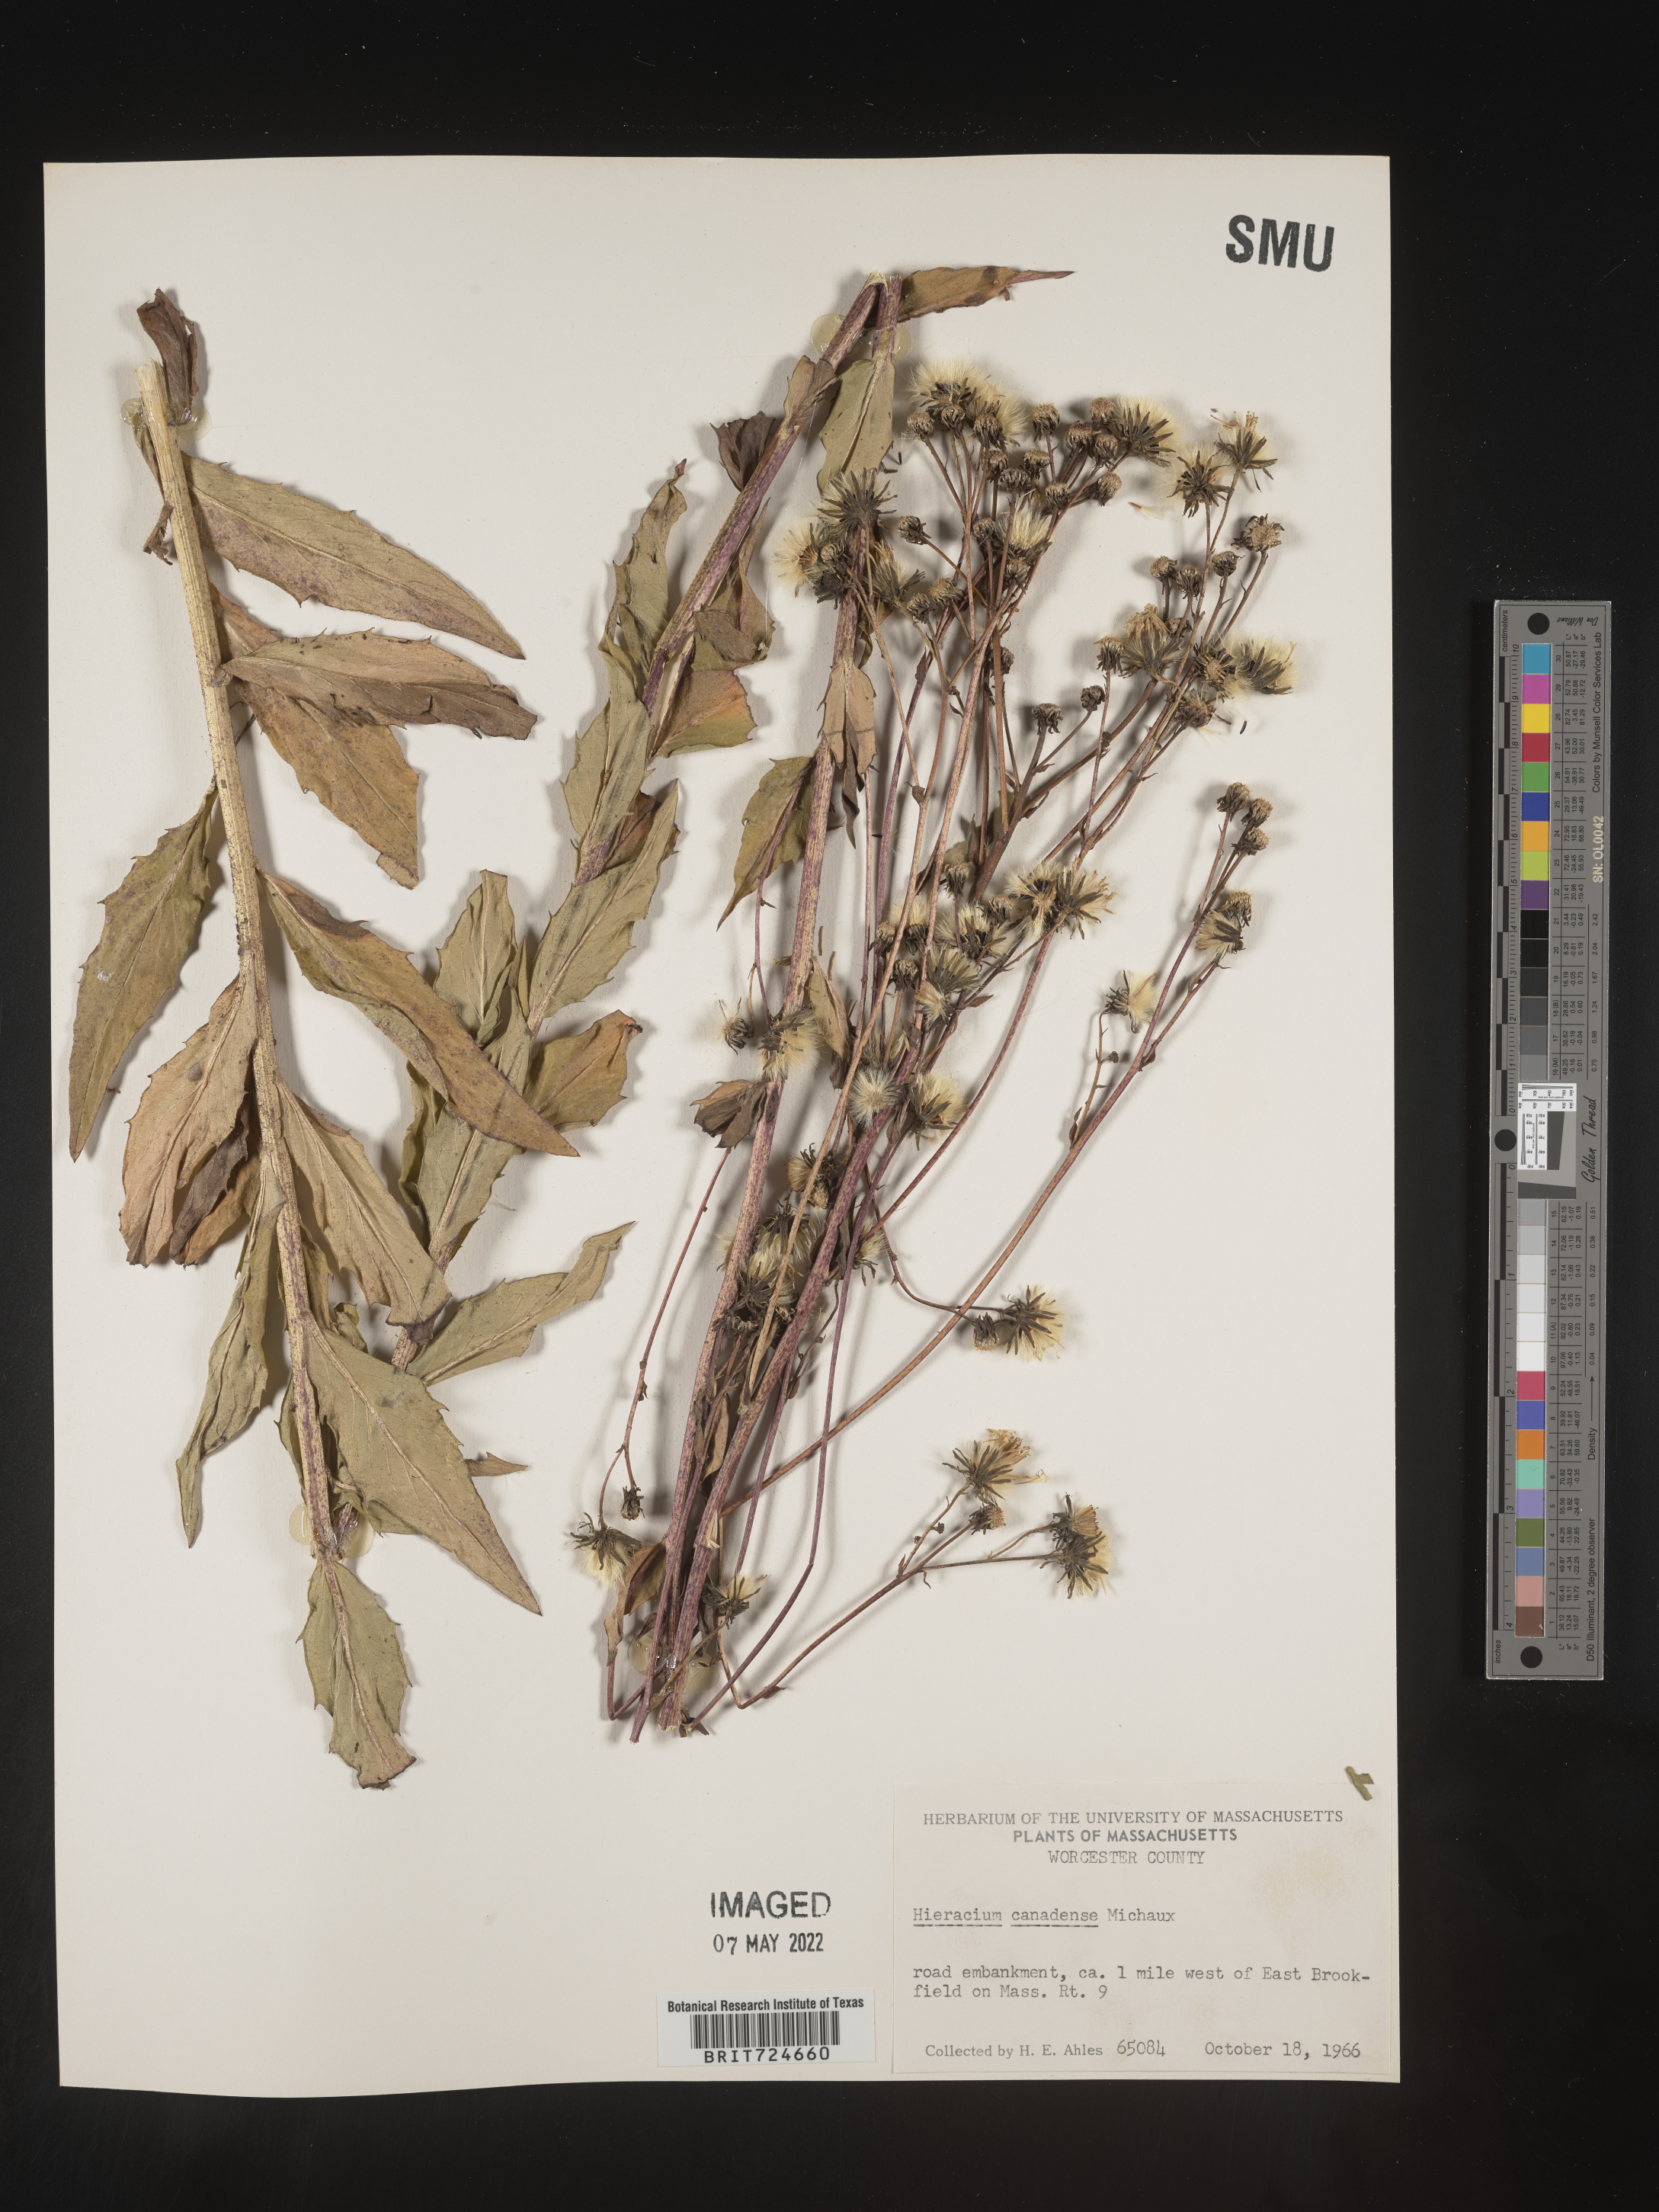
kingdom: Plantae
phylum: Tracheophyta
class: Magnoliopsida
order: Asterales
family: Asteraceae
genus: Hieracium
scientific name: Hieracium
